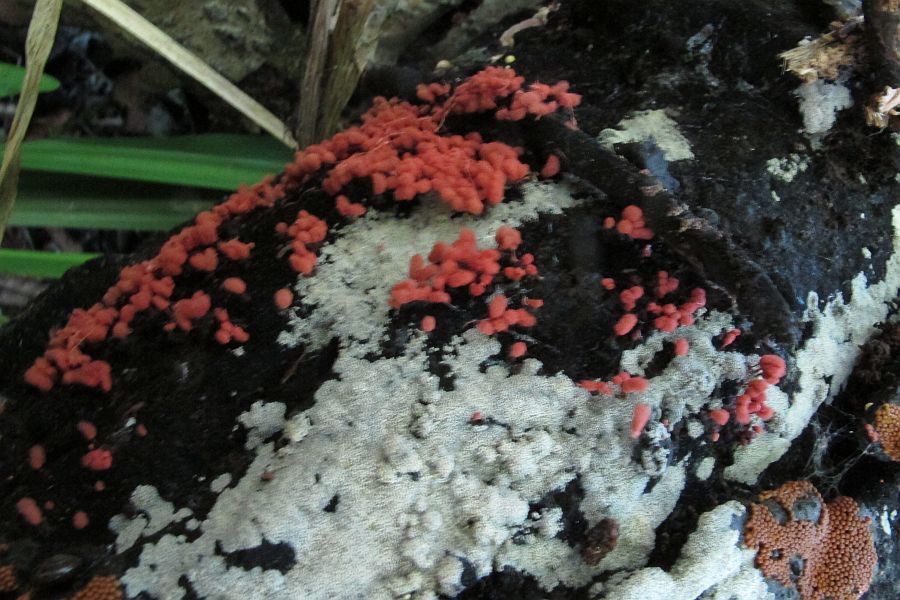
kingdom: Protozoa
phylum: Mycetozoa
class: Myxomycetes
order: Trichiales
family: Arcyriaceae
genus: Arcyria
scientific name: Arcyria denudata
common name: karminrød skålsvøb
